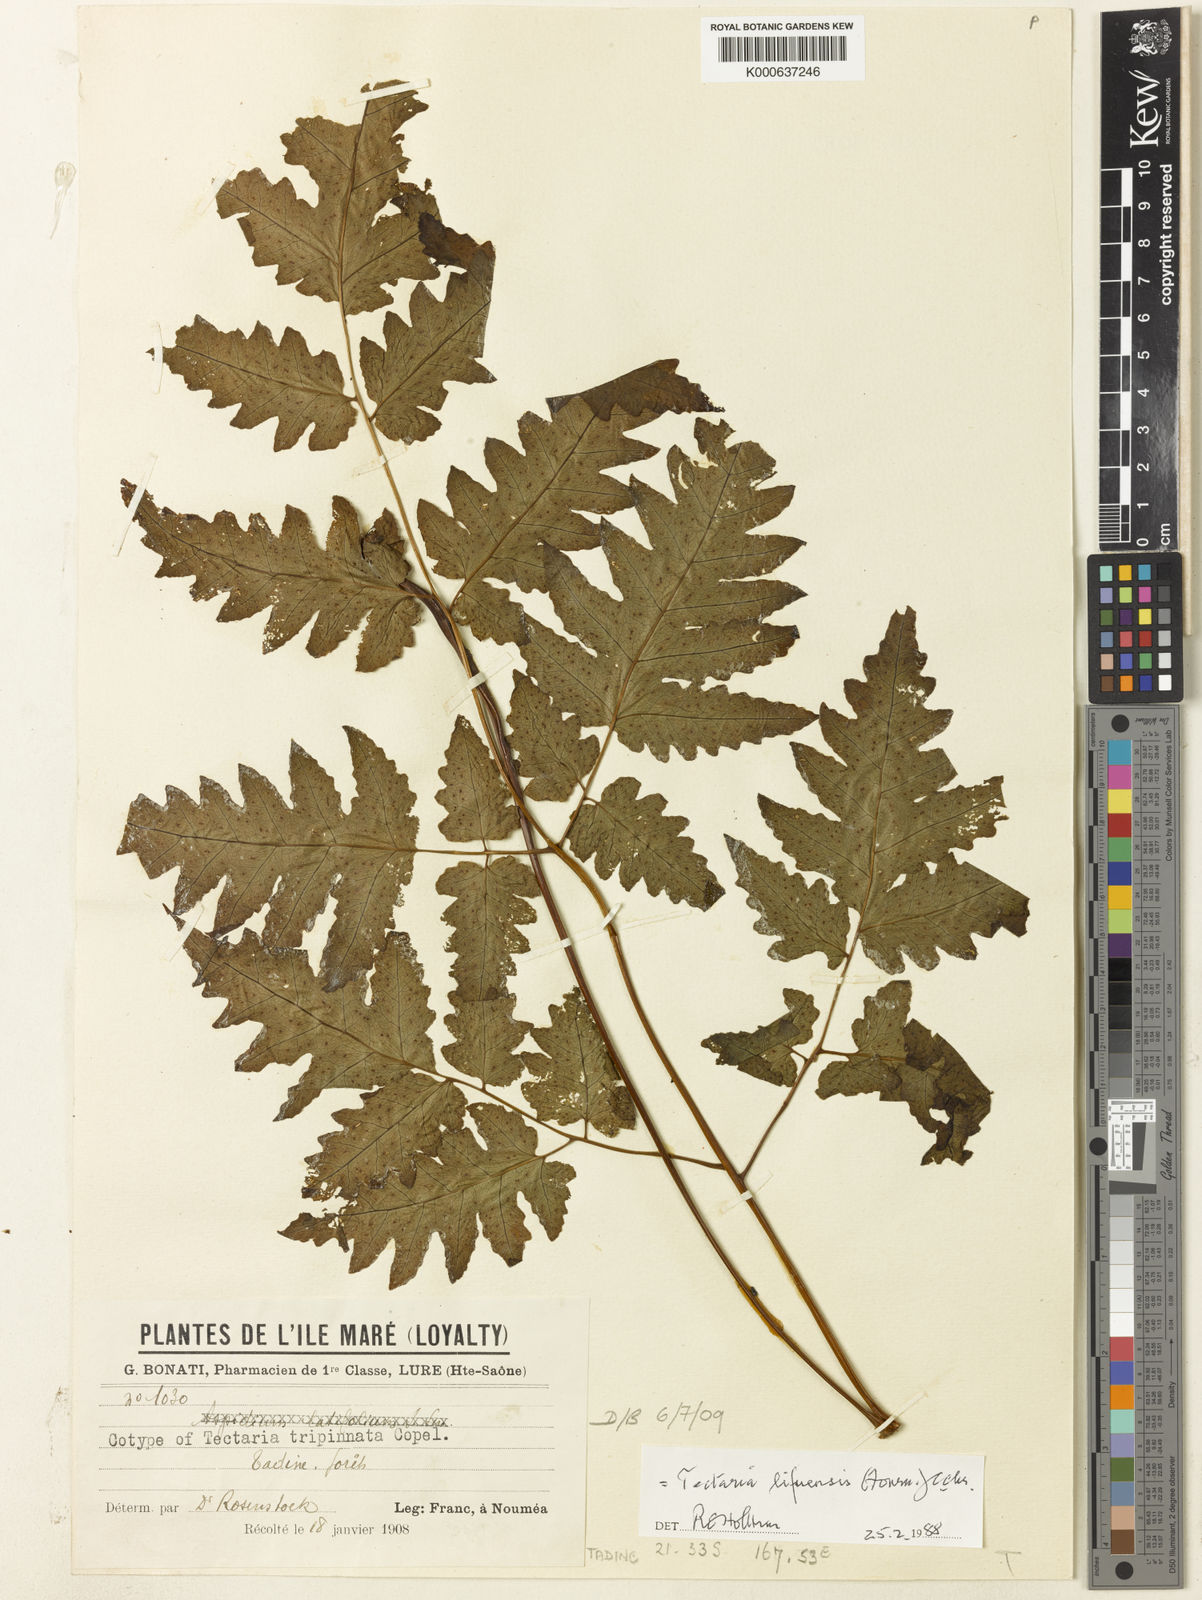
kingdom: Plantae
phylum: Tracheophyta
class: Polypodiopsida
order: Polypodiales
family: Tectariaceae
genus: Tectaria
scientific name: Tectaria lifuensis
